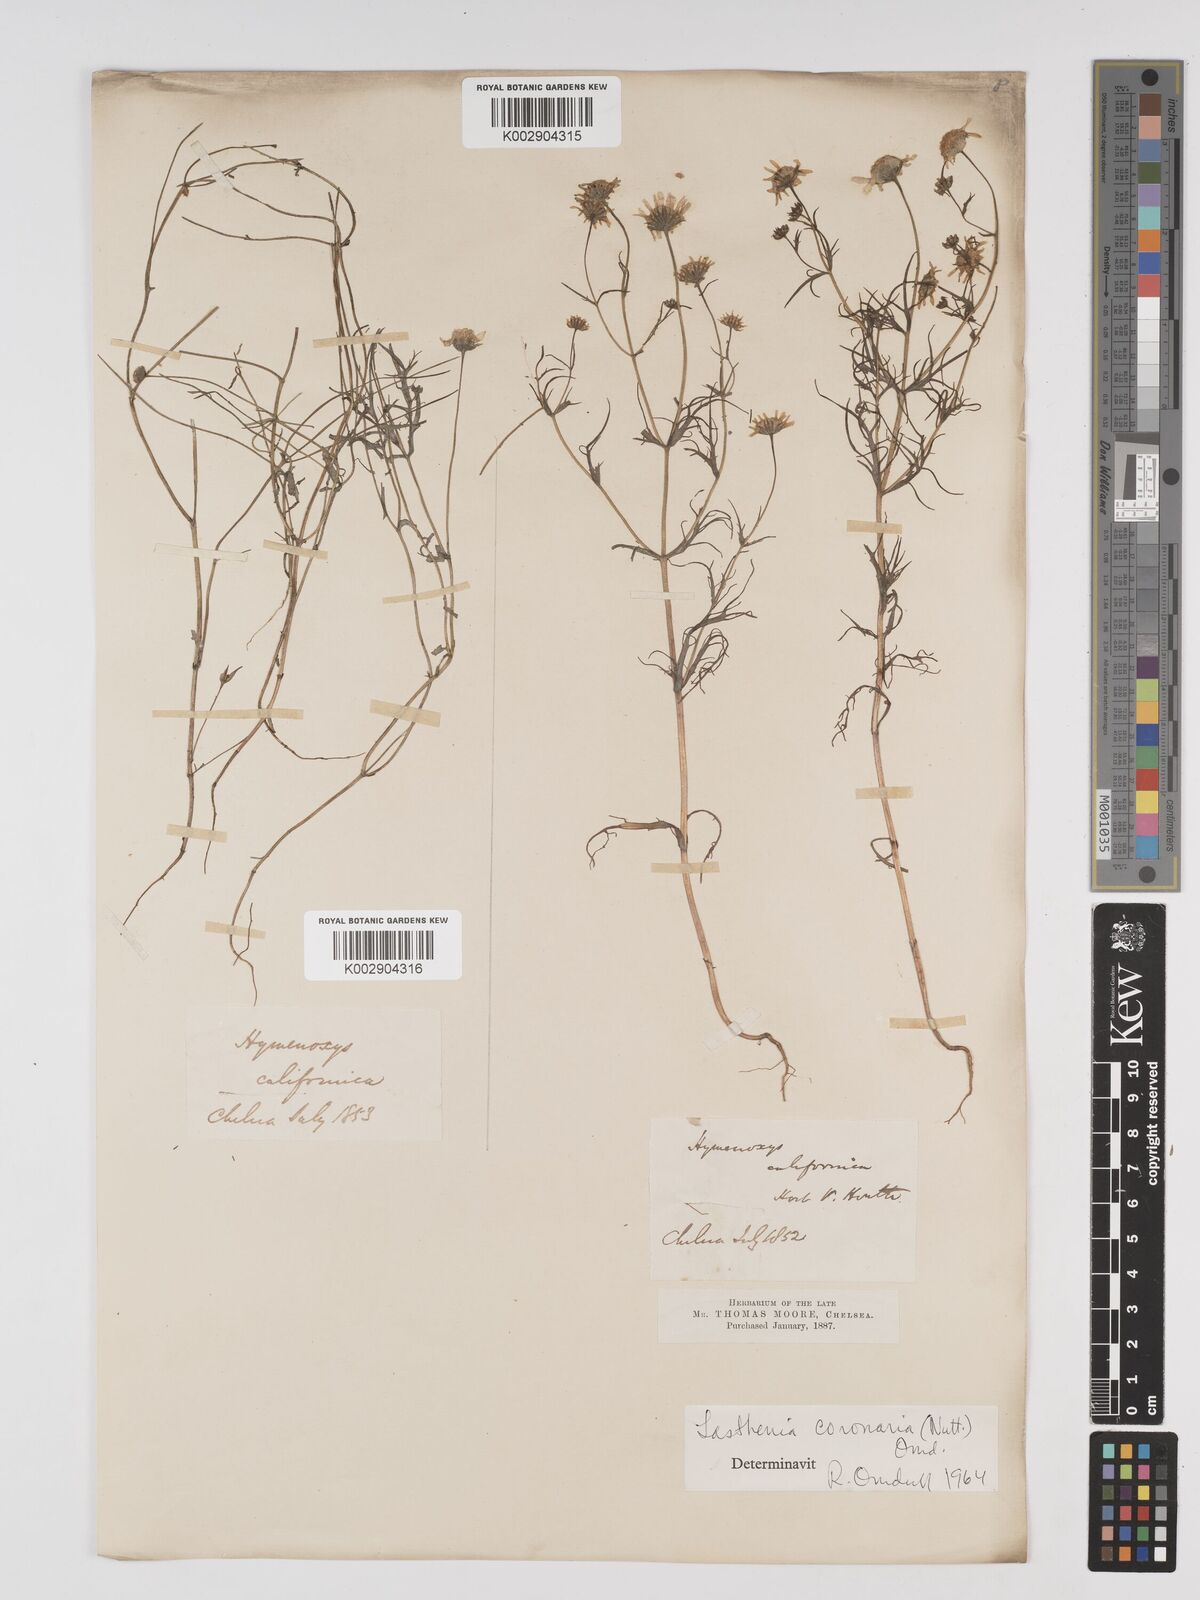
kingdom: Plantae
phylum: Tracheophyta
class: Magnoliopsida
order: Asterales
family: Asteraceae
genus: Lasthenia
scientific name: Lasthenia coronaria
